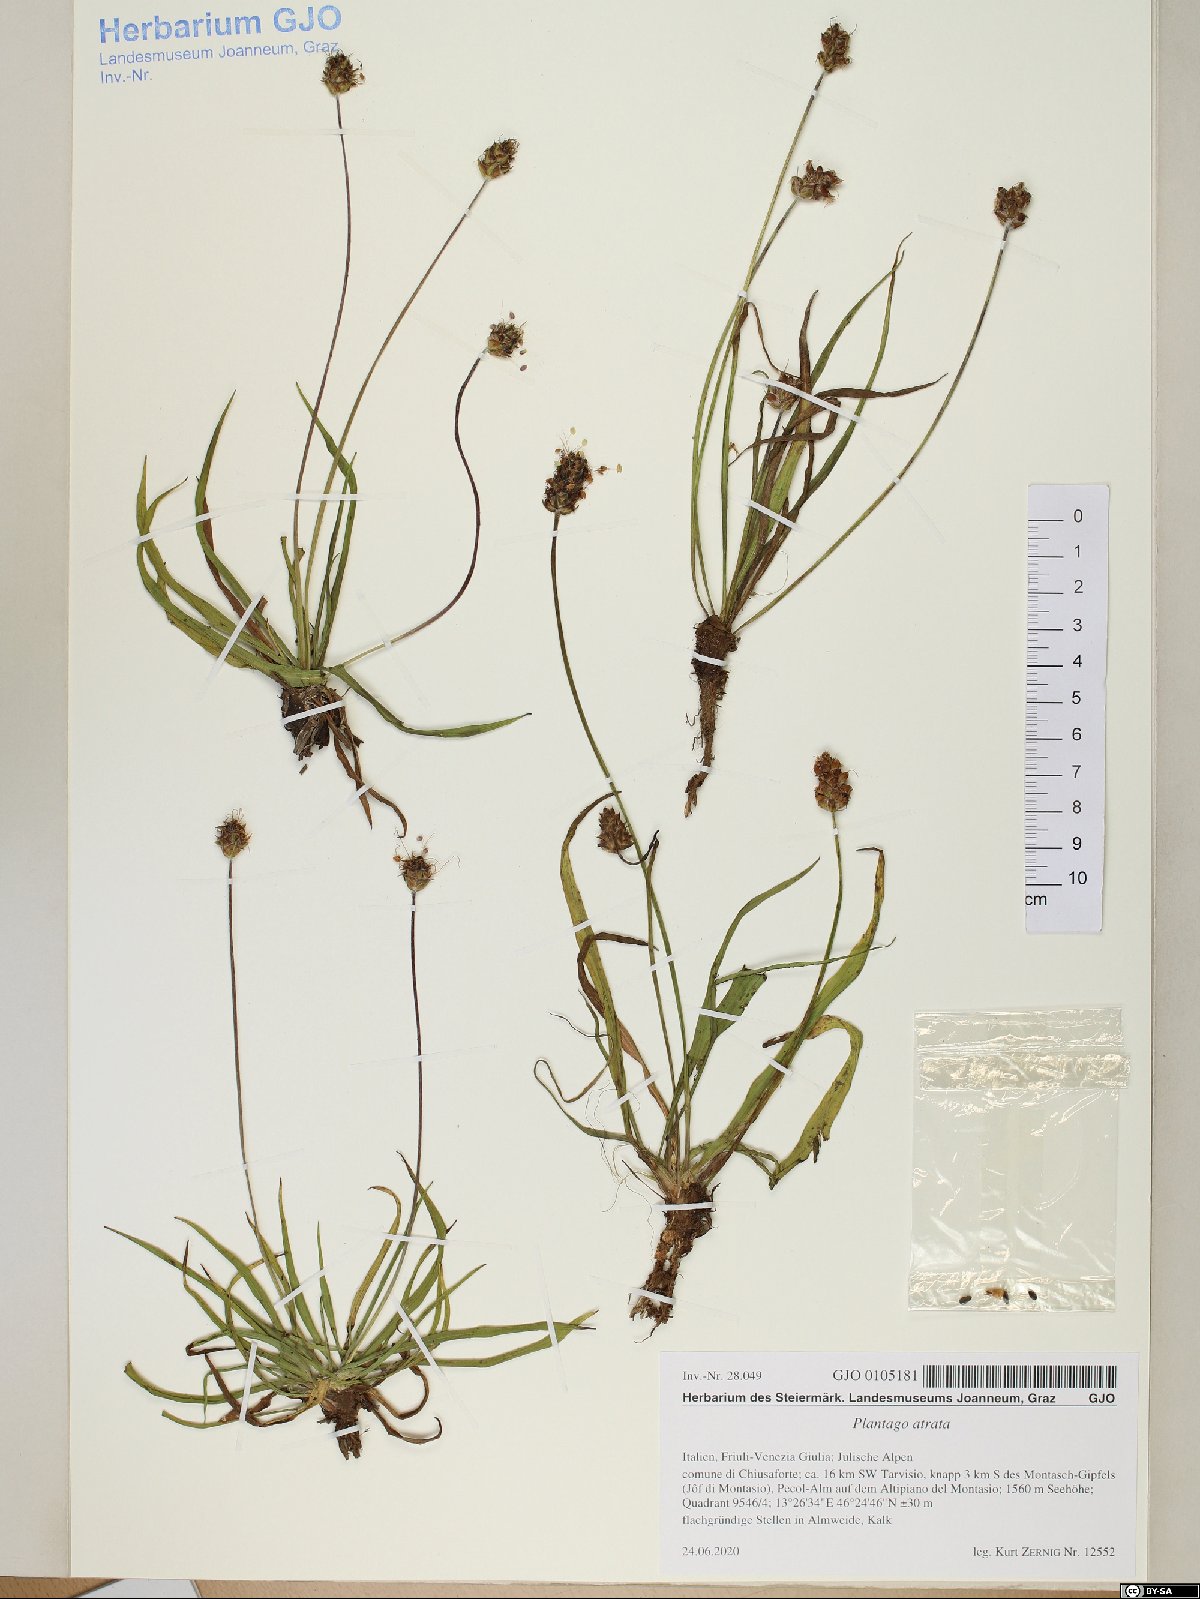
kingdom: Plantae
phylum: Tracheophyta
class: Magnoliopsida
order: Lamiales
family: Plantaginaceae
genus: Plantago
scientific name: Plantago atrata
